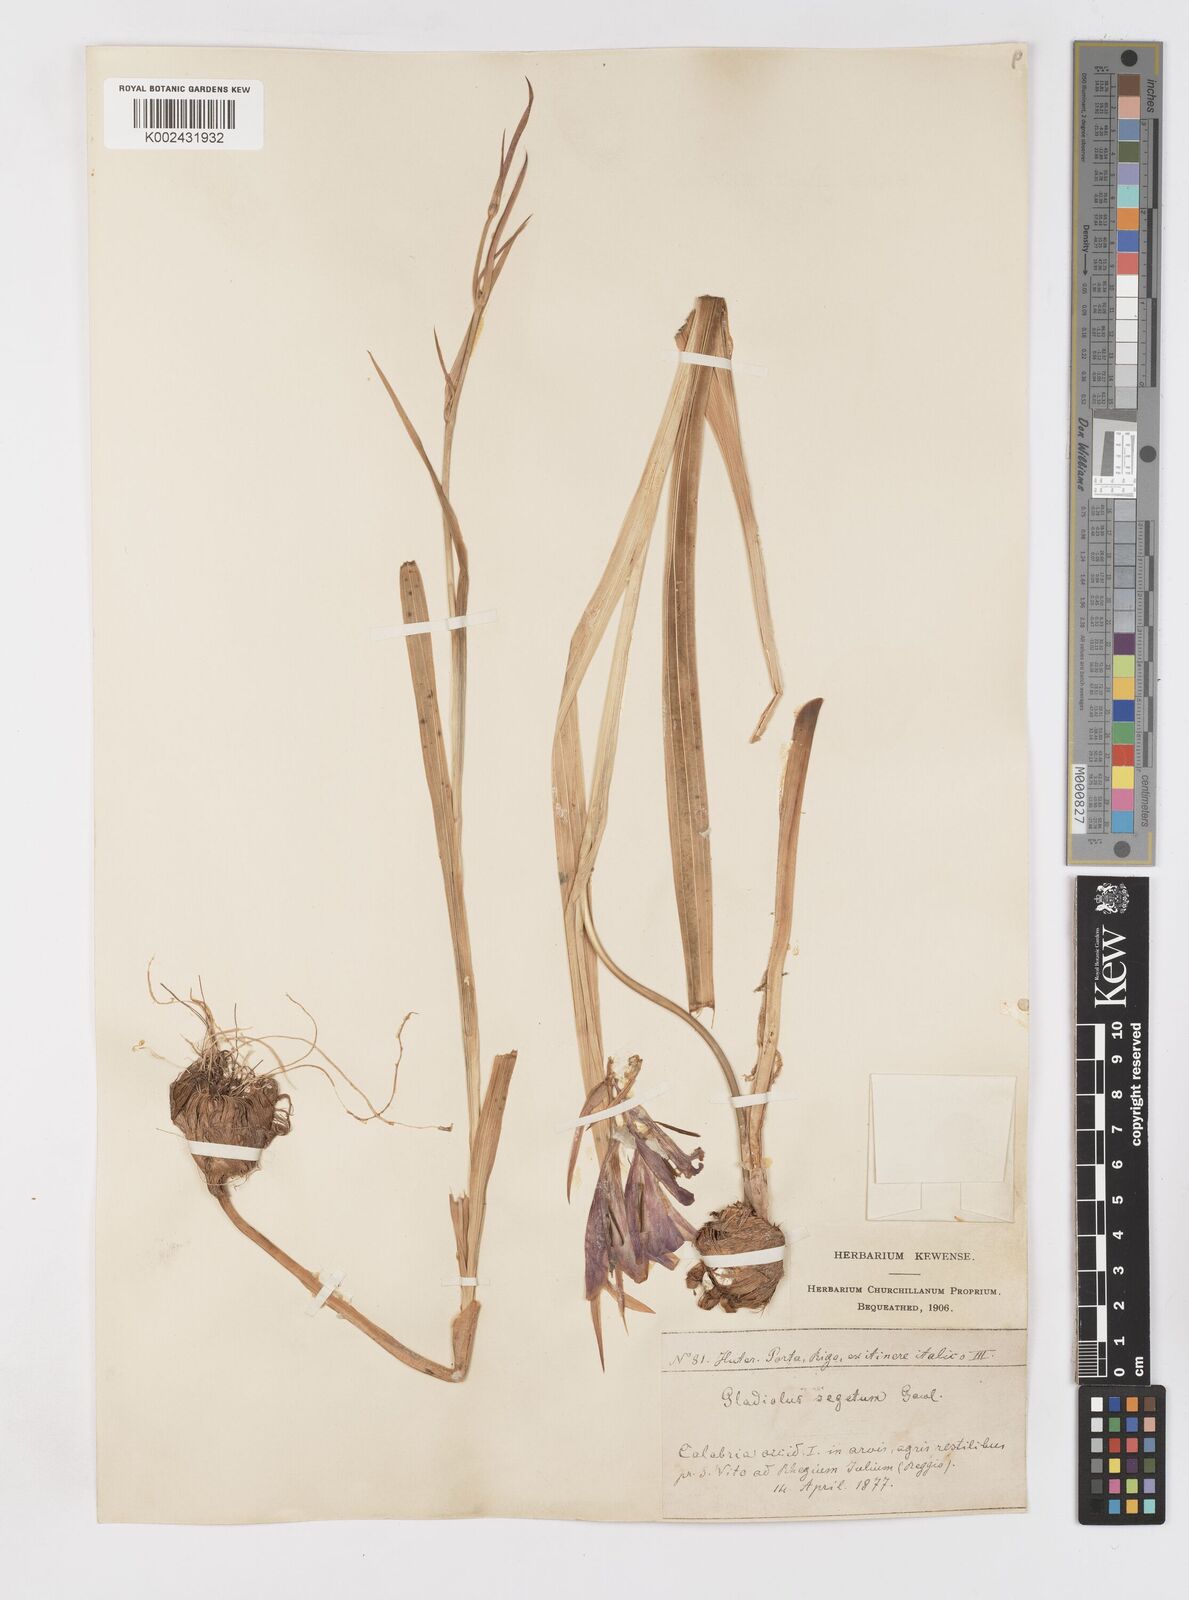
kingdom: Plantae
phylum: Tracheophyta
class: Liliopsida
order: Asparagales
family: Iridaceae
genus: Gladiolus
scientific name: Gladiolus italicus
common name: Field gladiolus
